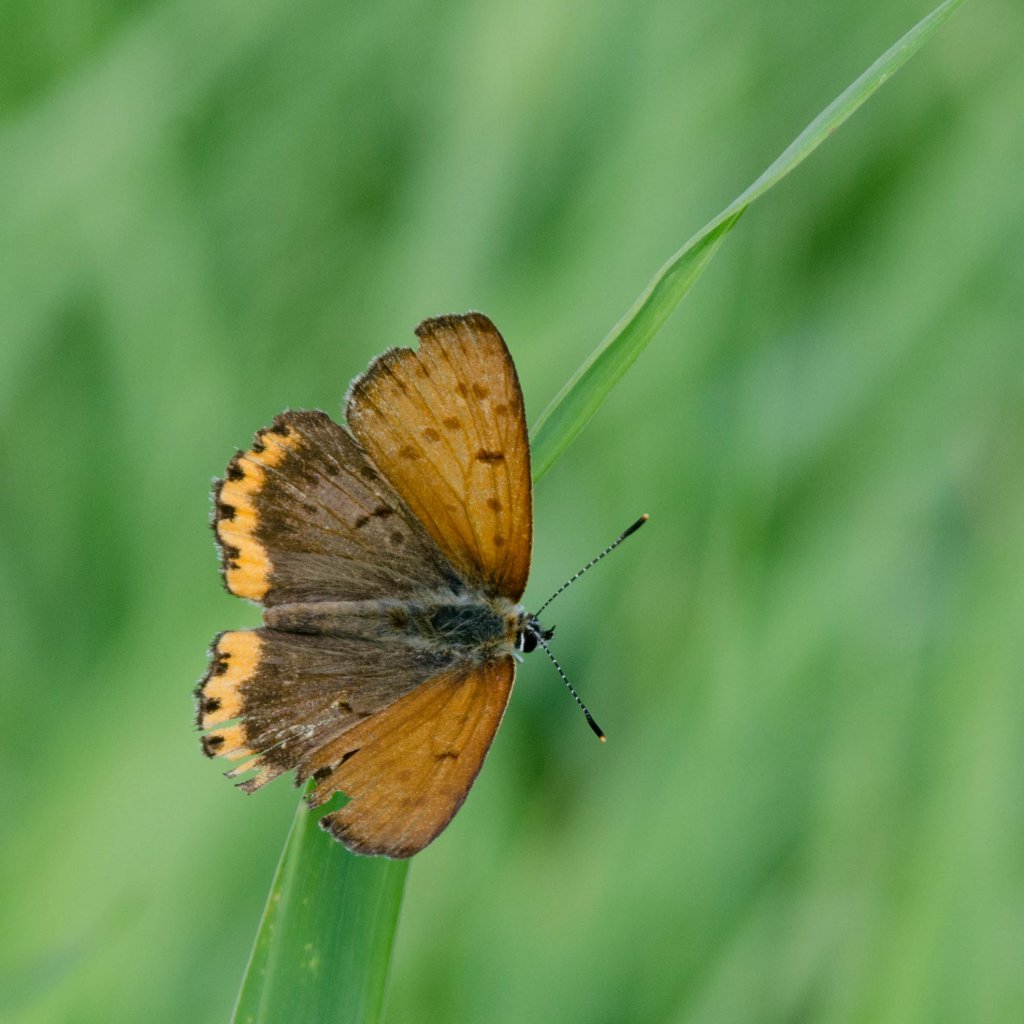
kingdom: Animalia
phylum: Arthropoda
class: Insecta
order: Lepidoptera
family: Sesiidae
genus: Sesia
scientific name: Sesia Lycaena hyllus
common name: Bronze Copper
